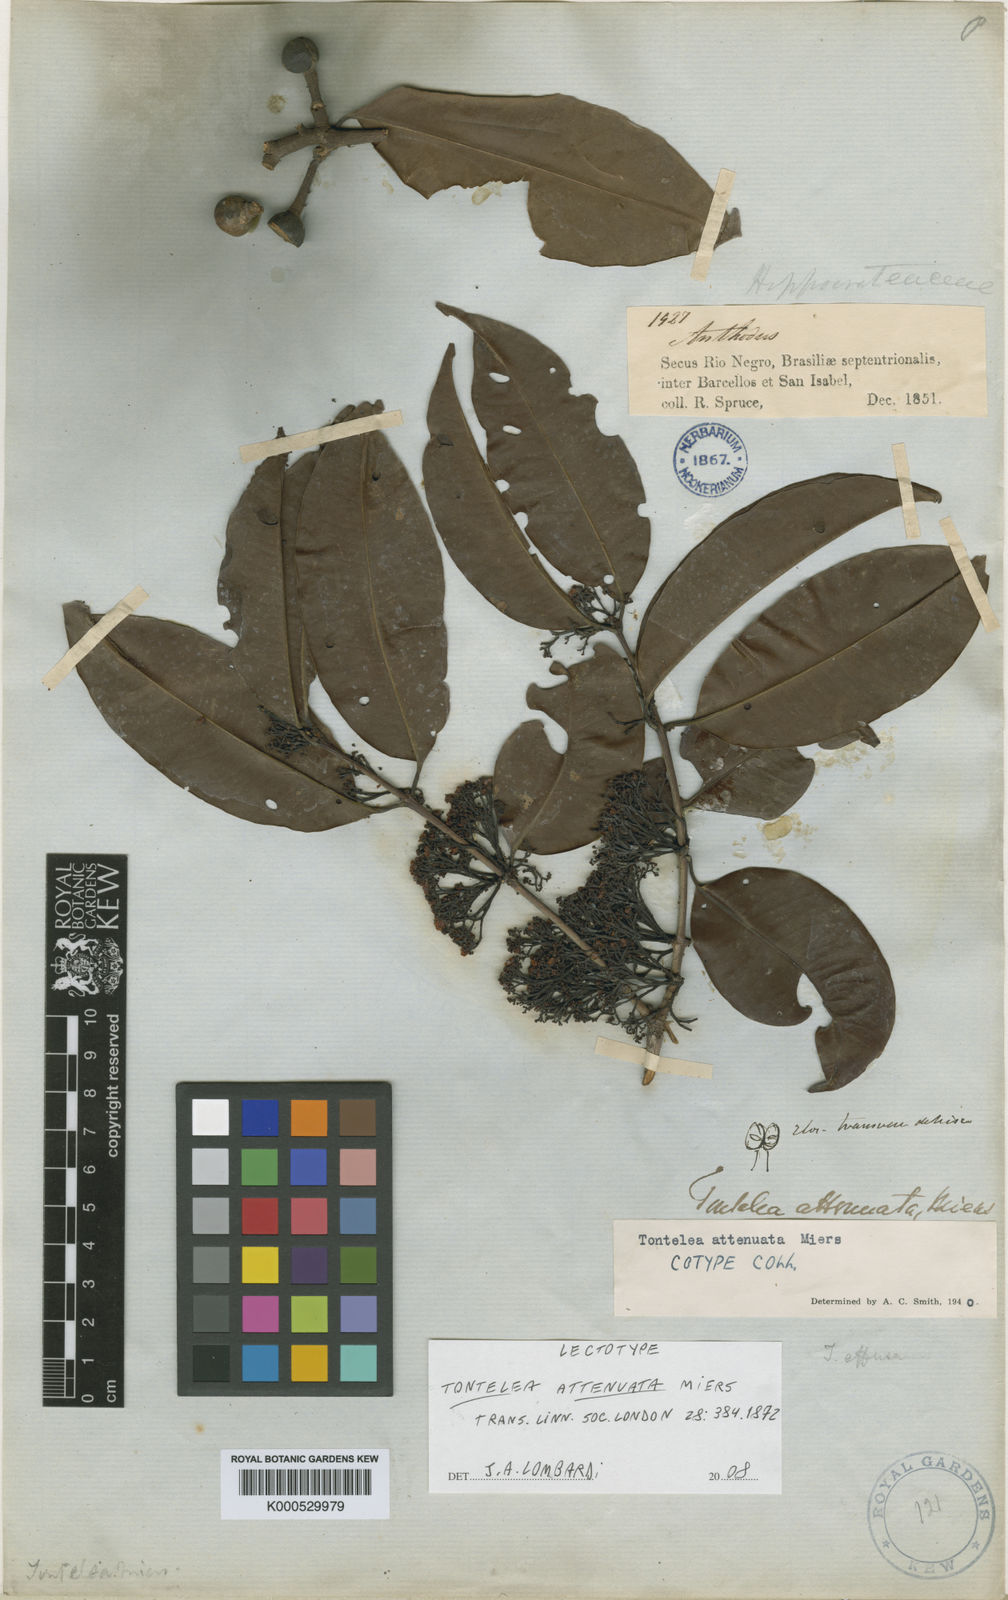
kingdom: Plantae
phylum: Tracheophyta
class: Magnoliopsida
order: Celastrales
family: Celastraceae
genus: Tontelea
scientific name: Tontelea attenuata
